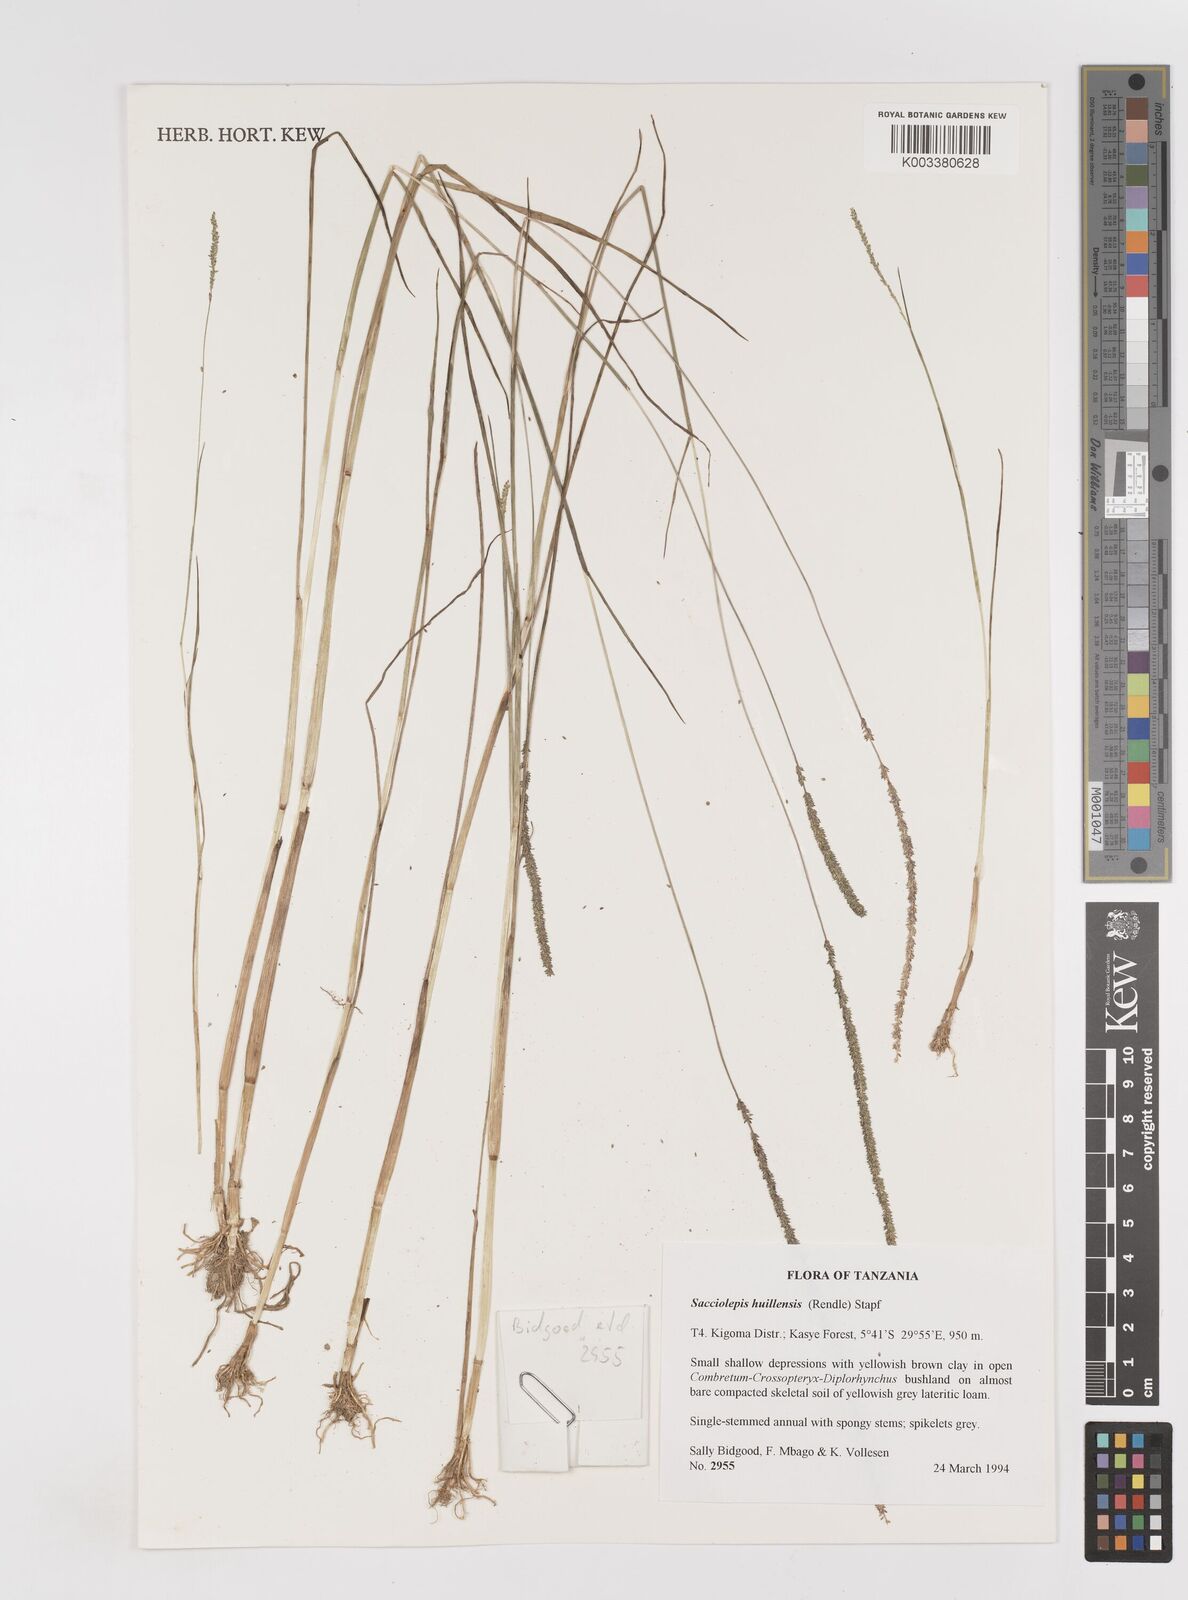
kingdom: Plantae
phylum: Tracheophyta
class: Liliopsida
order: Poales
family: Poaceae
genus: Sacciolepis
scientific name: Sacciolepis myosuroides
